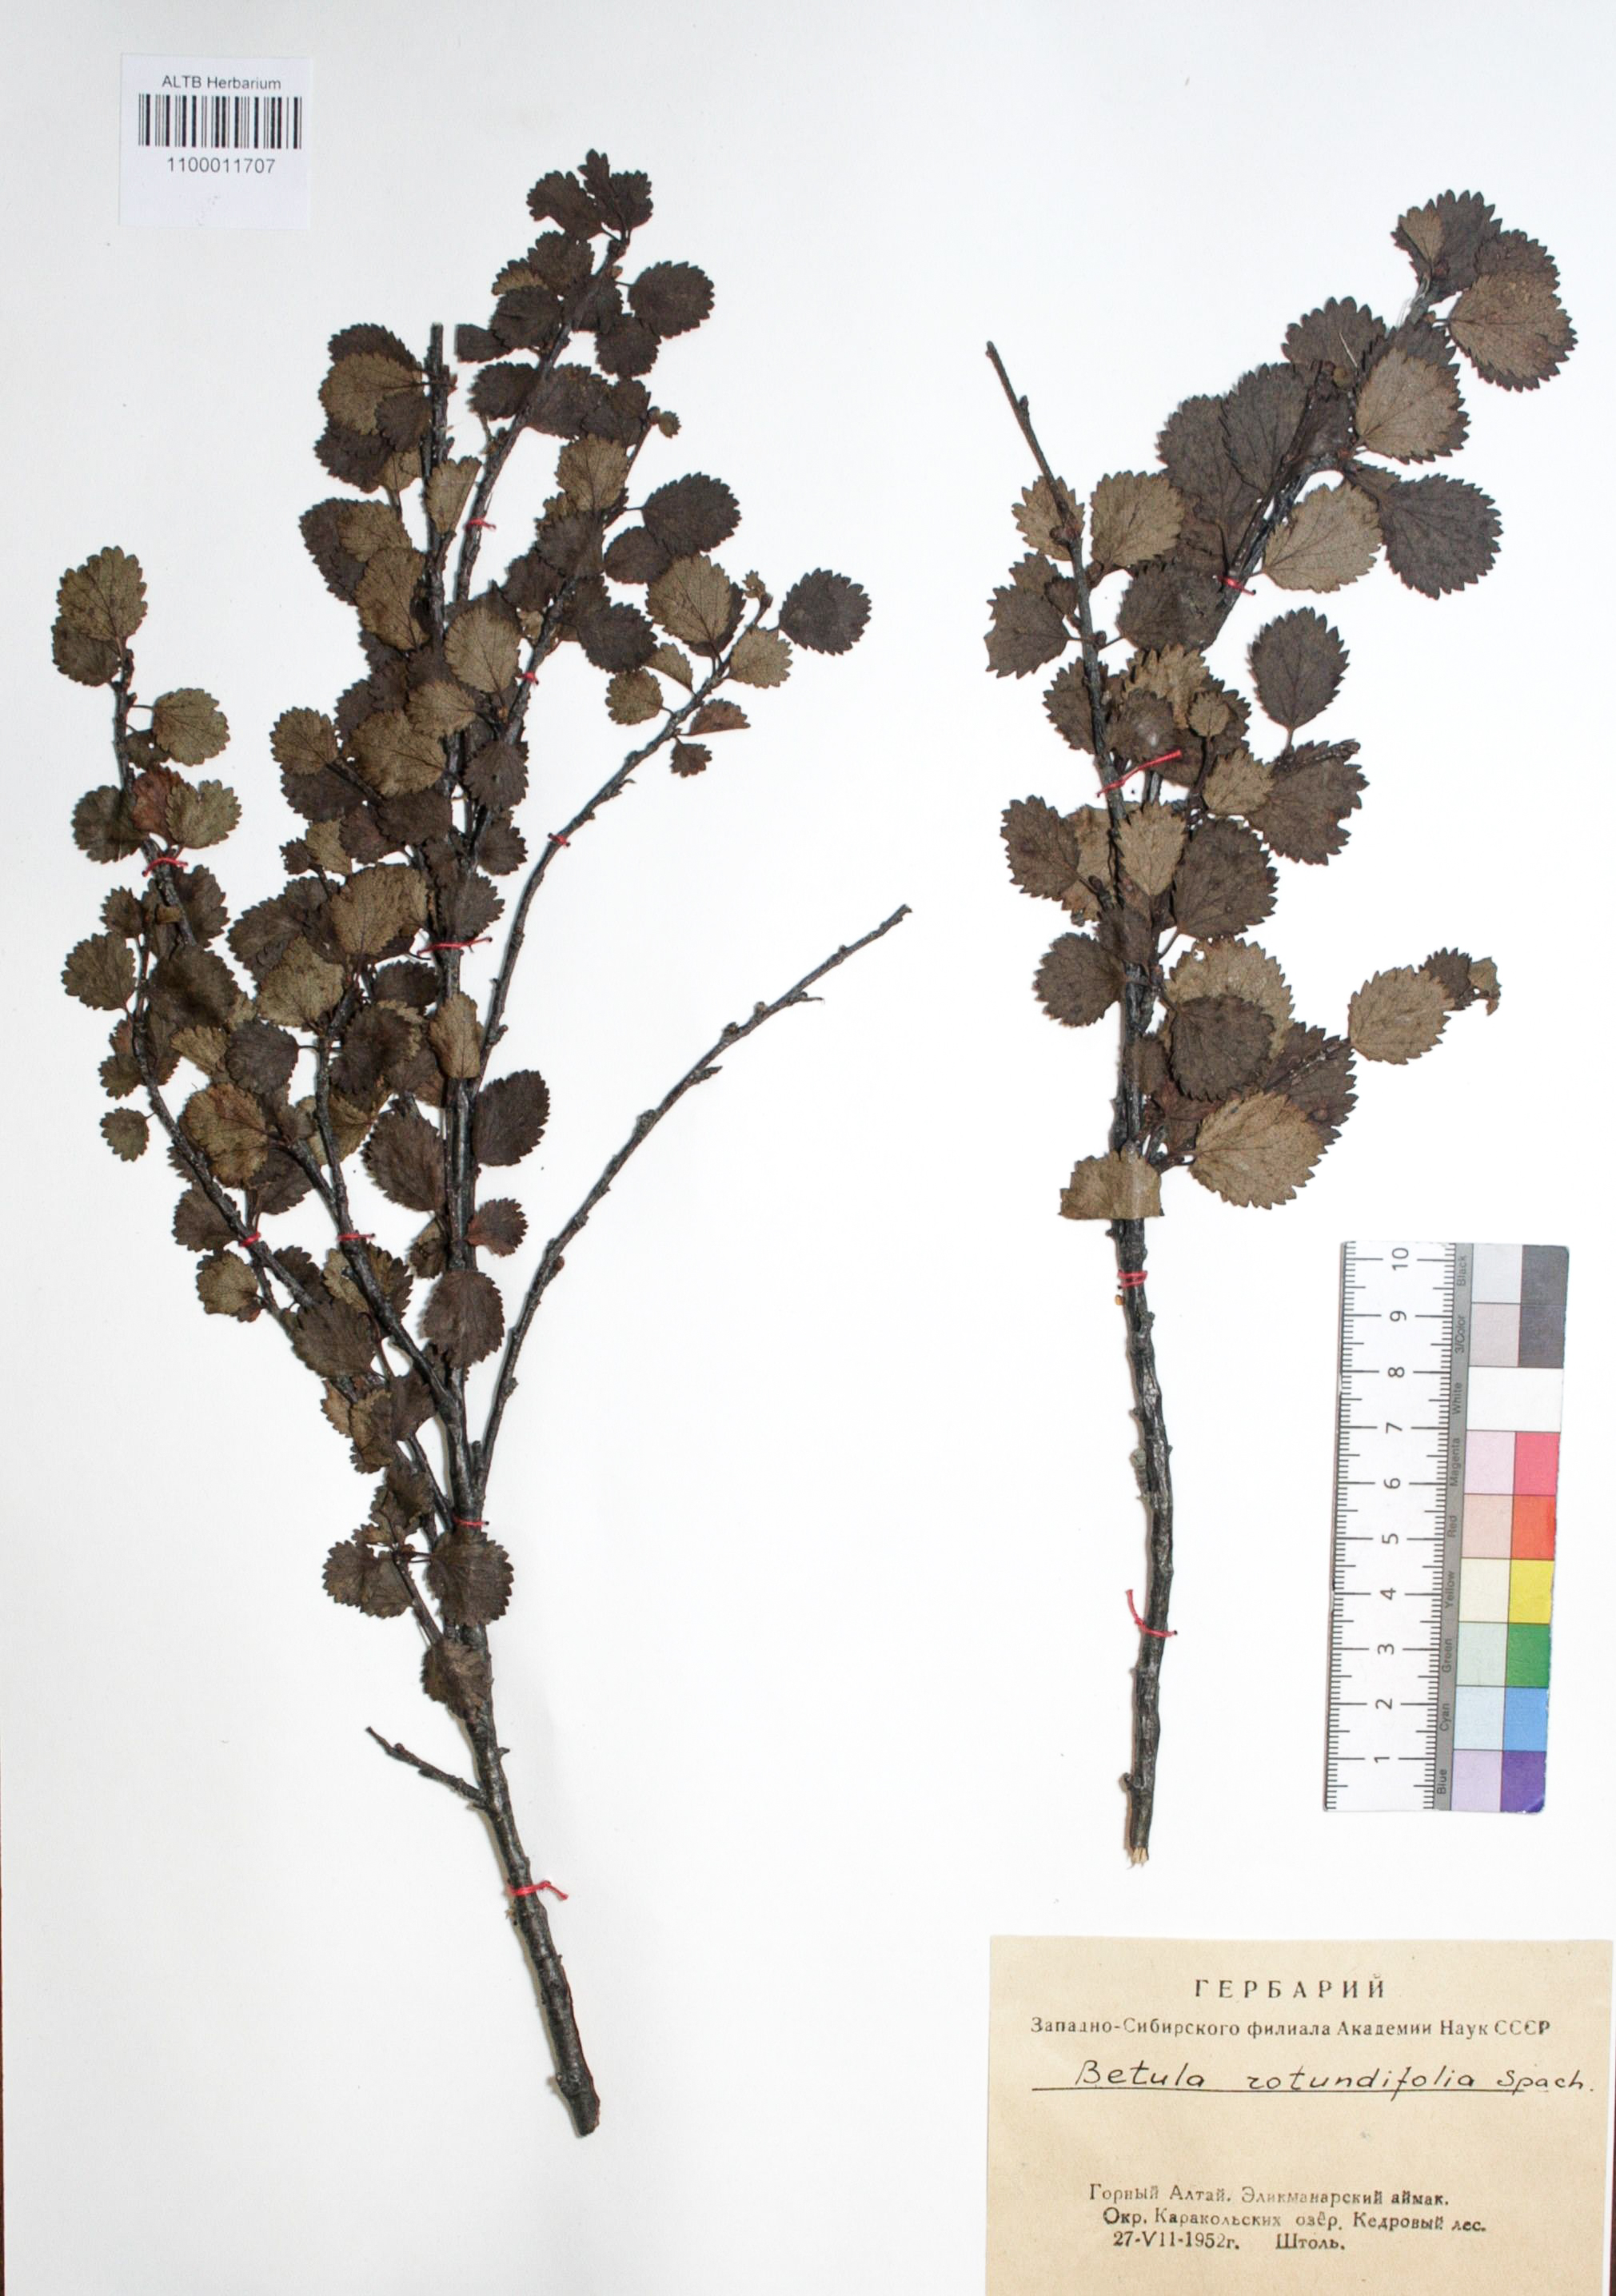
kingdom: Plantae
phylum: Tracheophyta
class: Magnoliopsida
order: Fagales
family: Betulaceae
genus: Betula
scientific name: Betula glandulosa
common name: Dwarf birch
